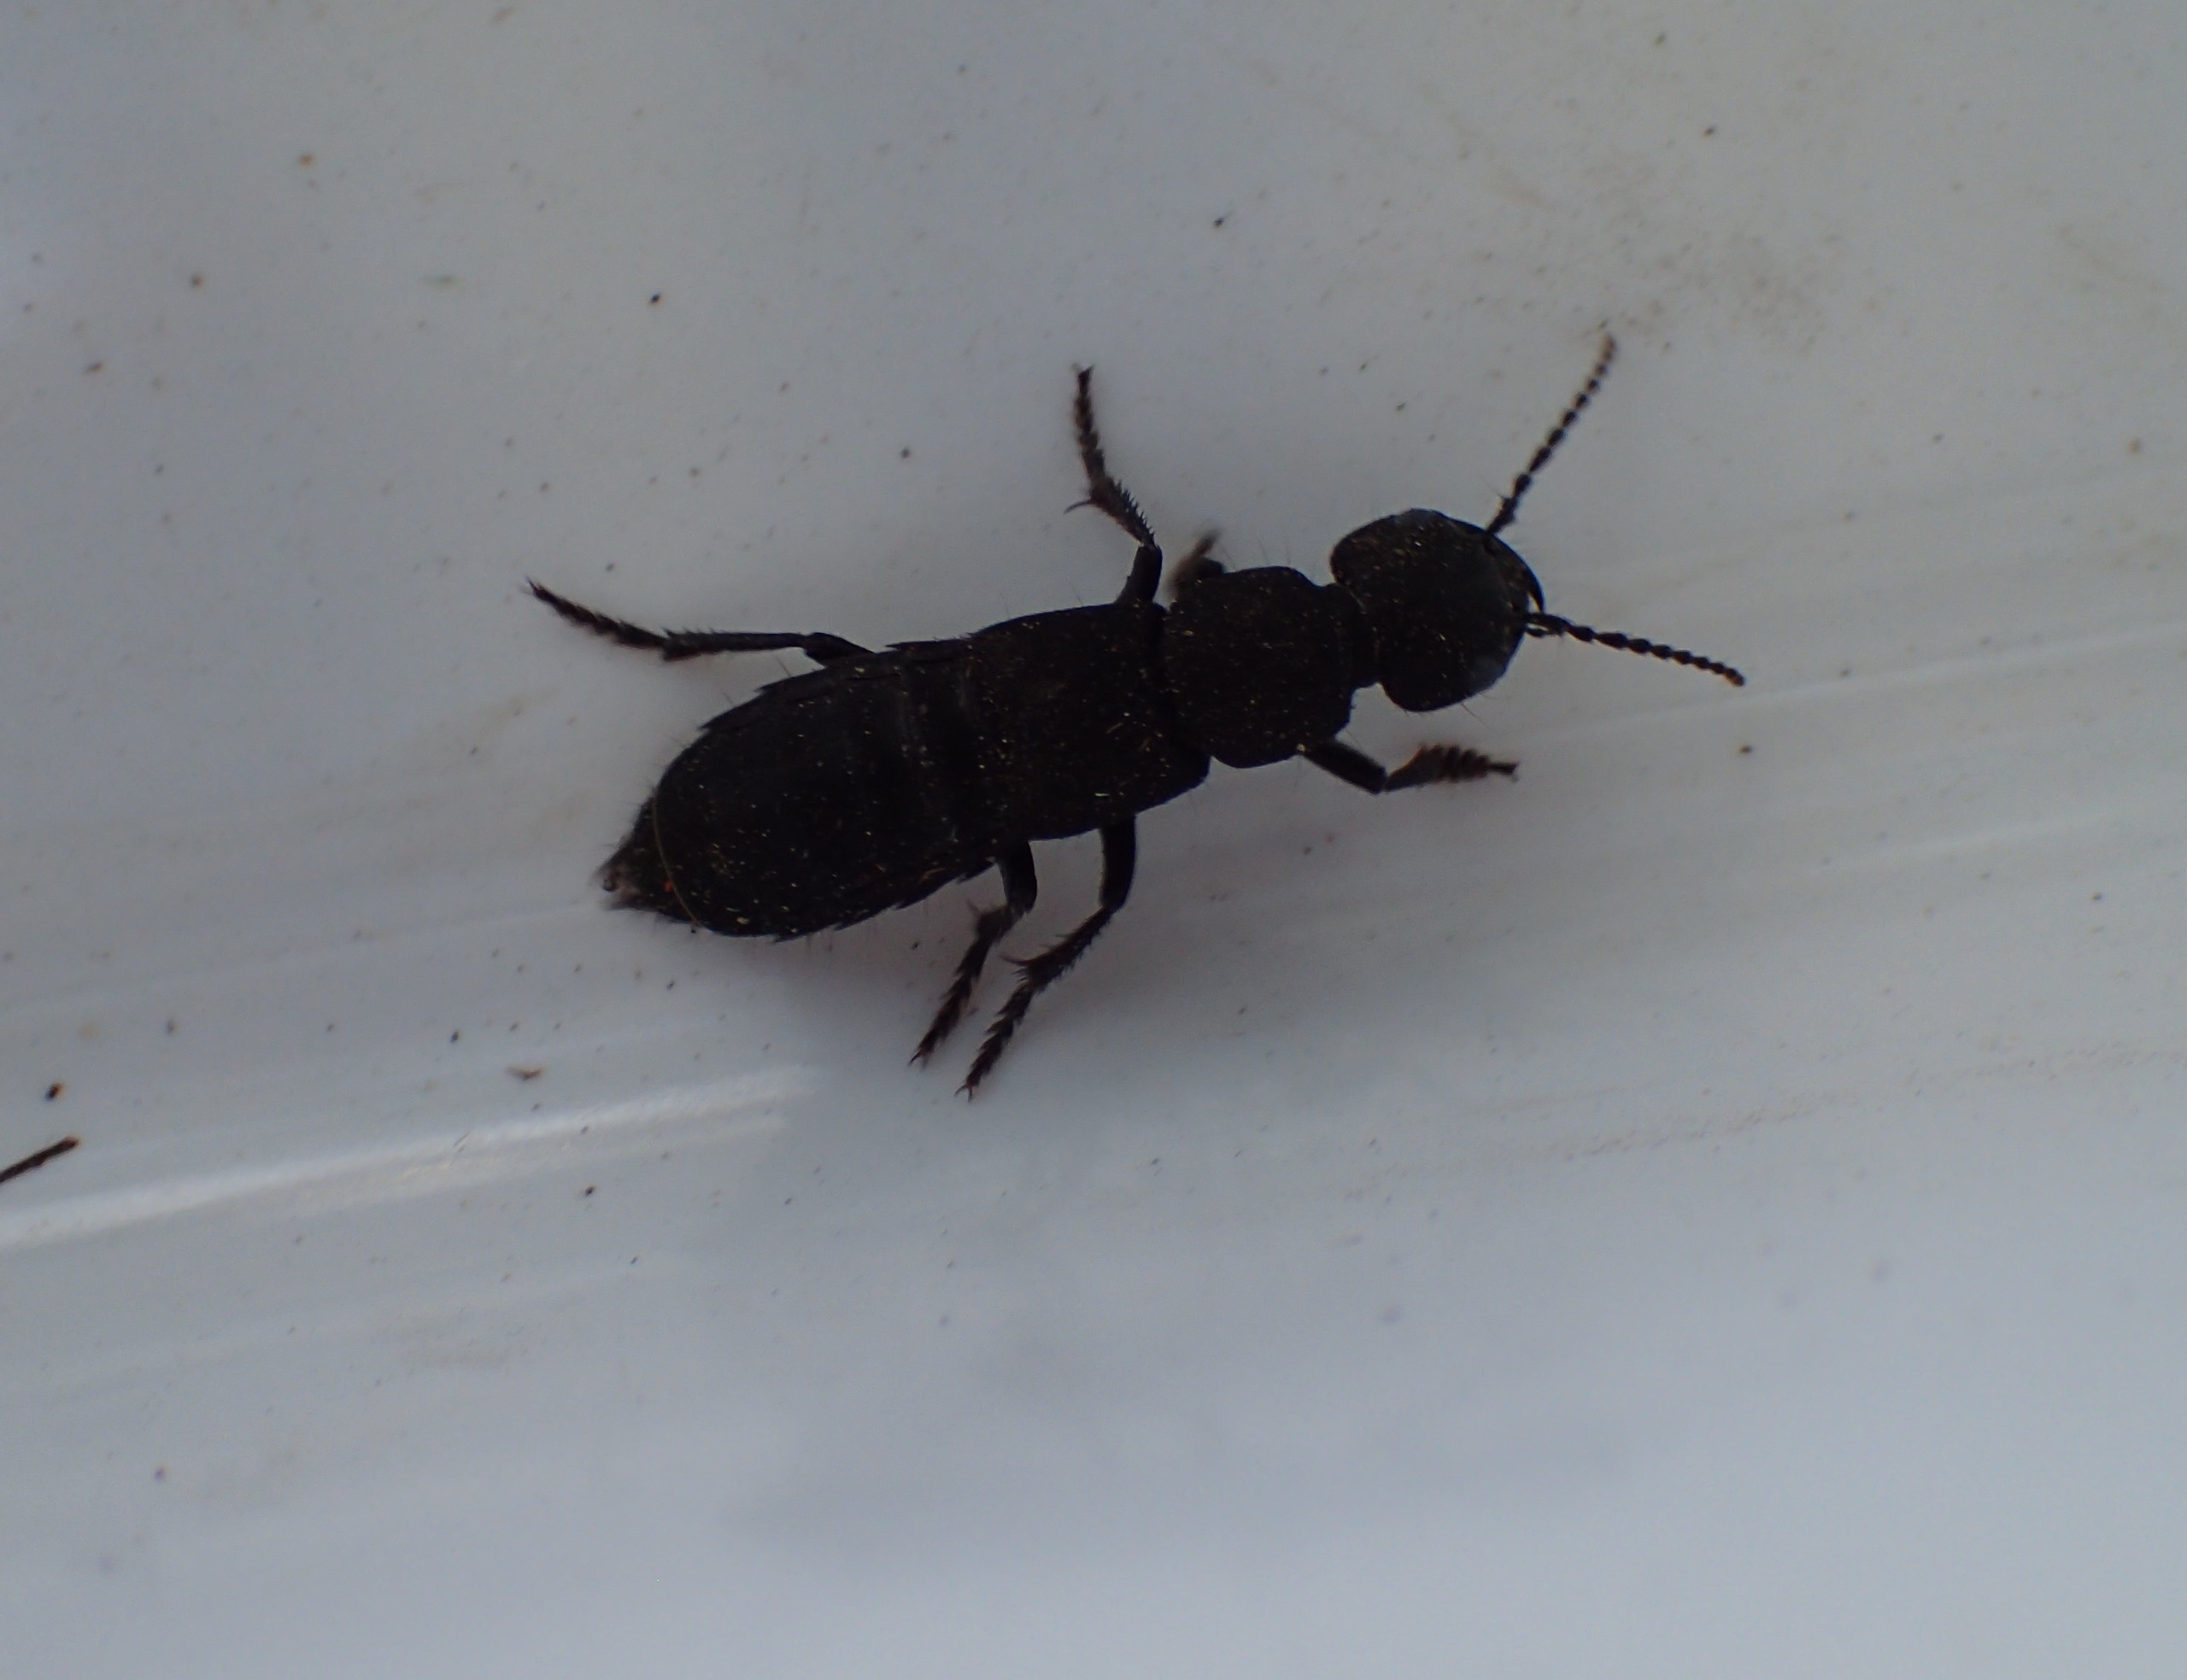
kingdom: Animalia
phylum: Arthropoda
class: Insecta
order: Coleoptera
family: Staphylinidae
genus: Ocypus
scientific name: Ocypus olens
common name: Stor rovbille
